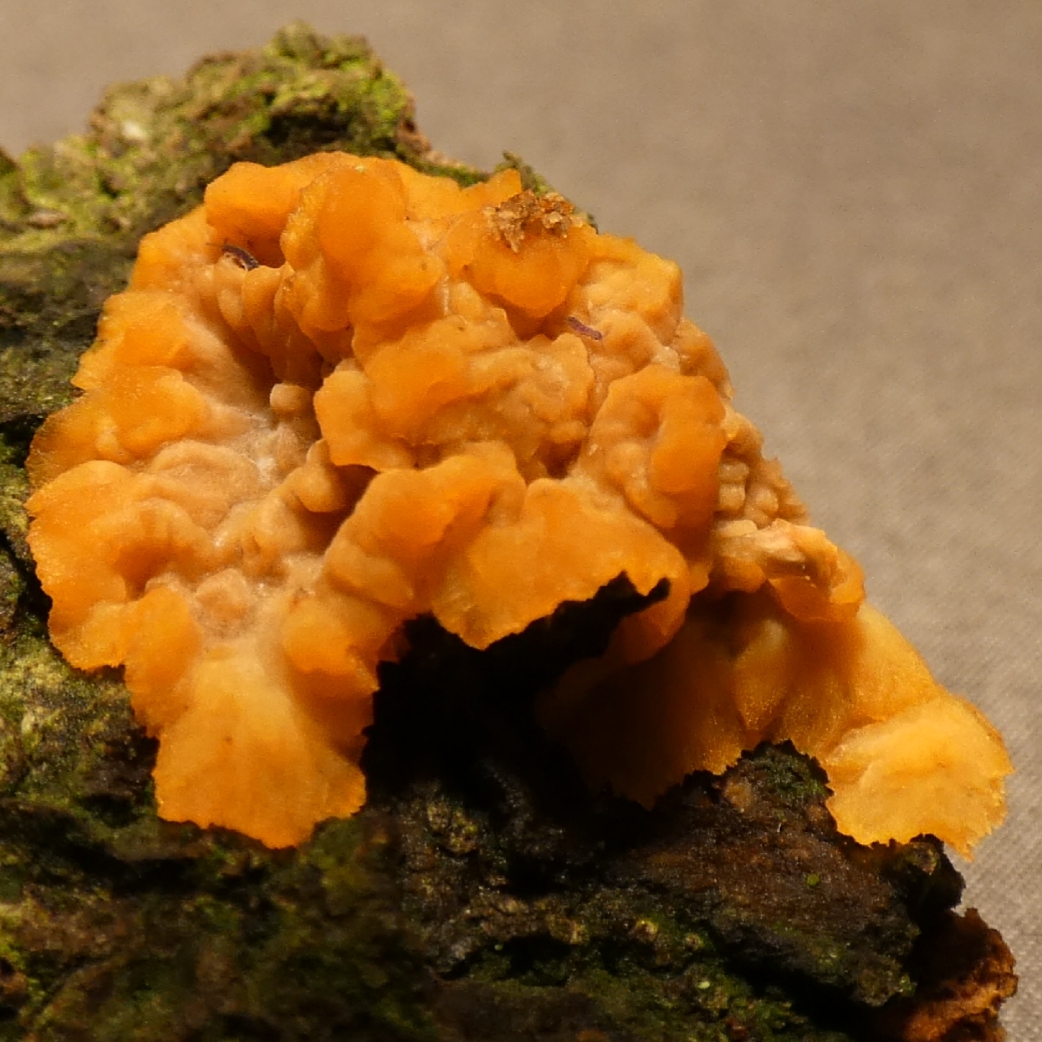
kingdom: Fungi
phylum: Basidiomycota
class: Agaricomycetes
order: Polyporales
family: Meruliaceae
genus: Phlebia
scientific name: Phlebia radiata
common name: stråle-åresvamp
